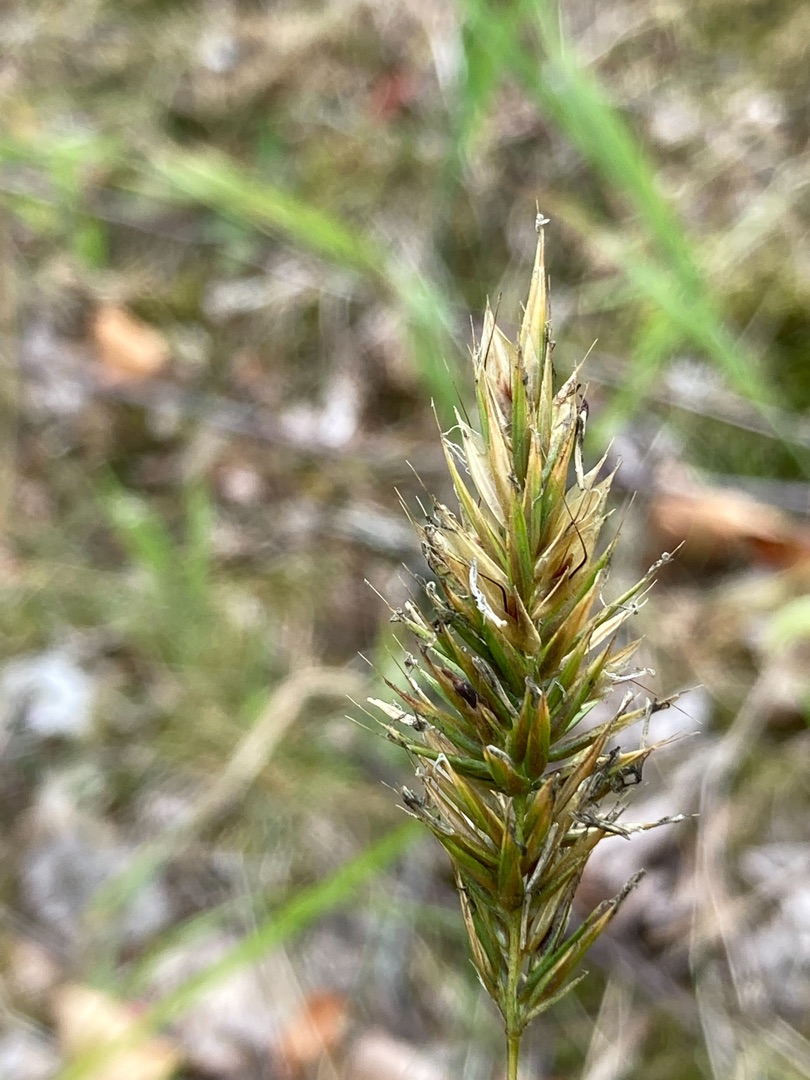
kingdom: Plantae
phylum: Tracheophyta
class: Liliopsida
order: Poales
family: Poaceae
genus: Anthoxanthum
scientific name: Anthoxanthum odoratum
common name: Vellugtende gulaks
